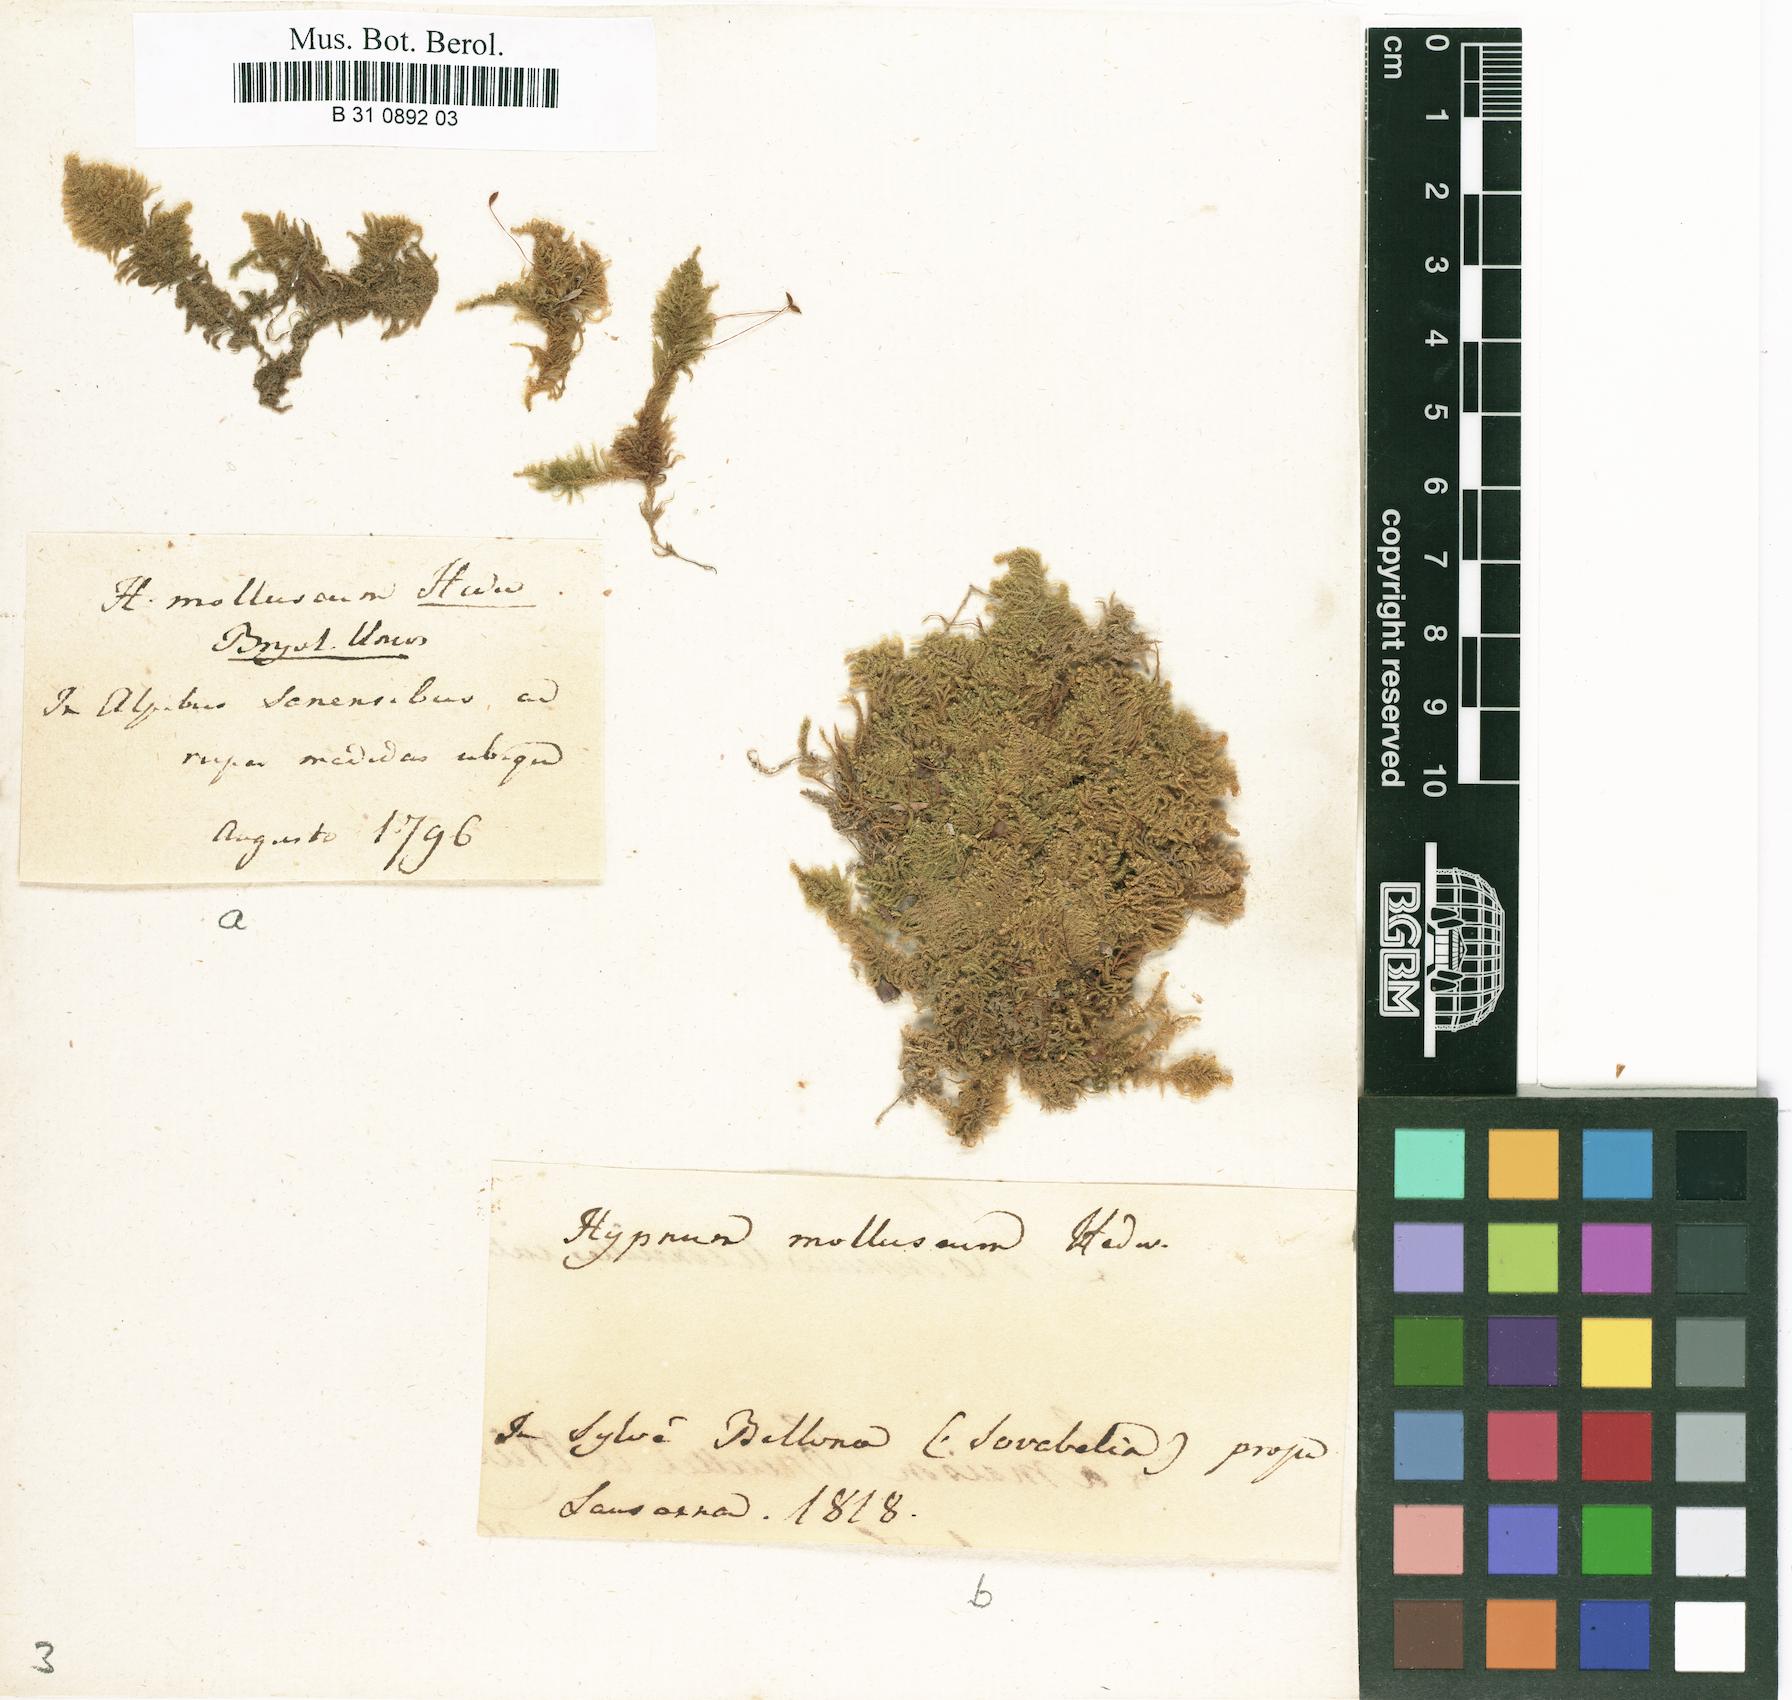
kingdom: Plantae
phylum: Bryophyta
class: Bryopsida
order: Hypnales
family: Myuriaceae
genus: Ctenidium
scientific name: Ctenidium molluscum
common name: Chalk comb-moss
